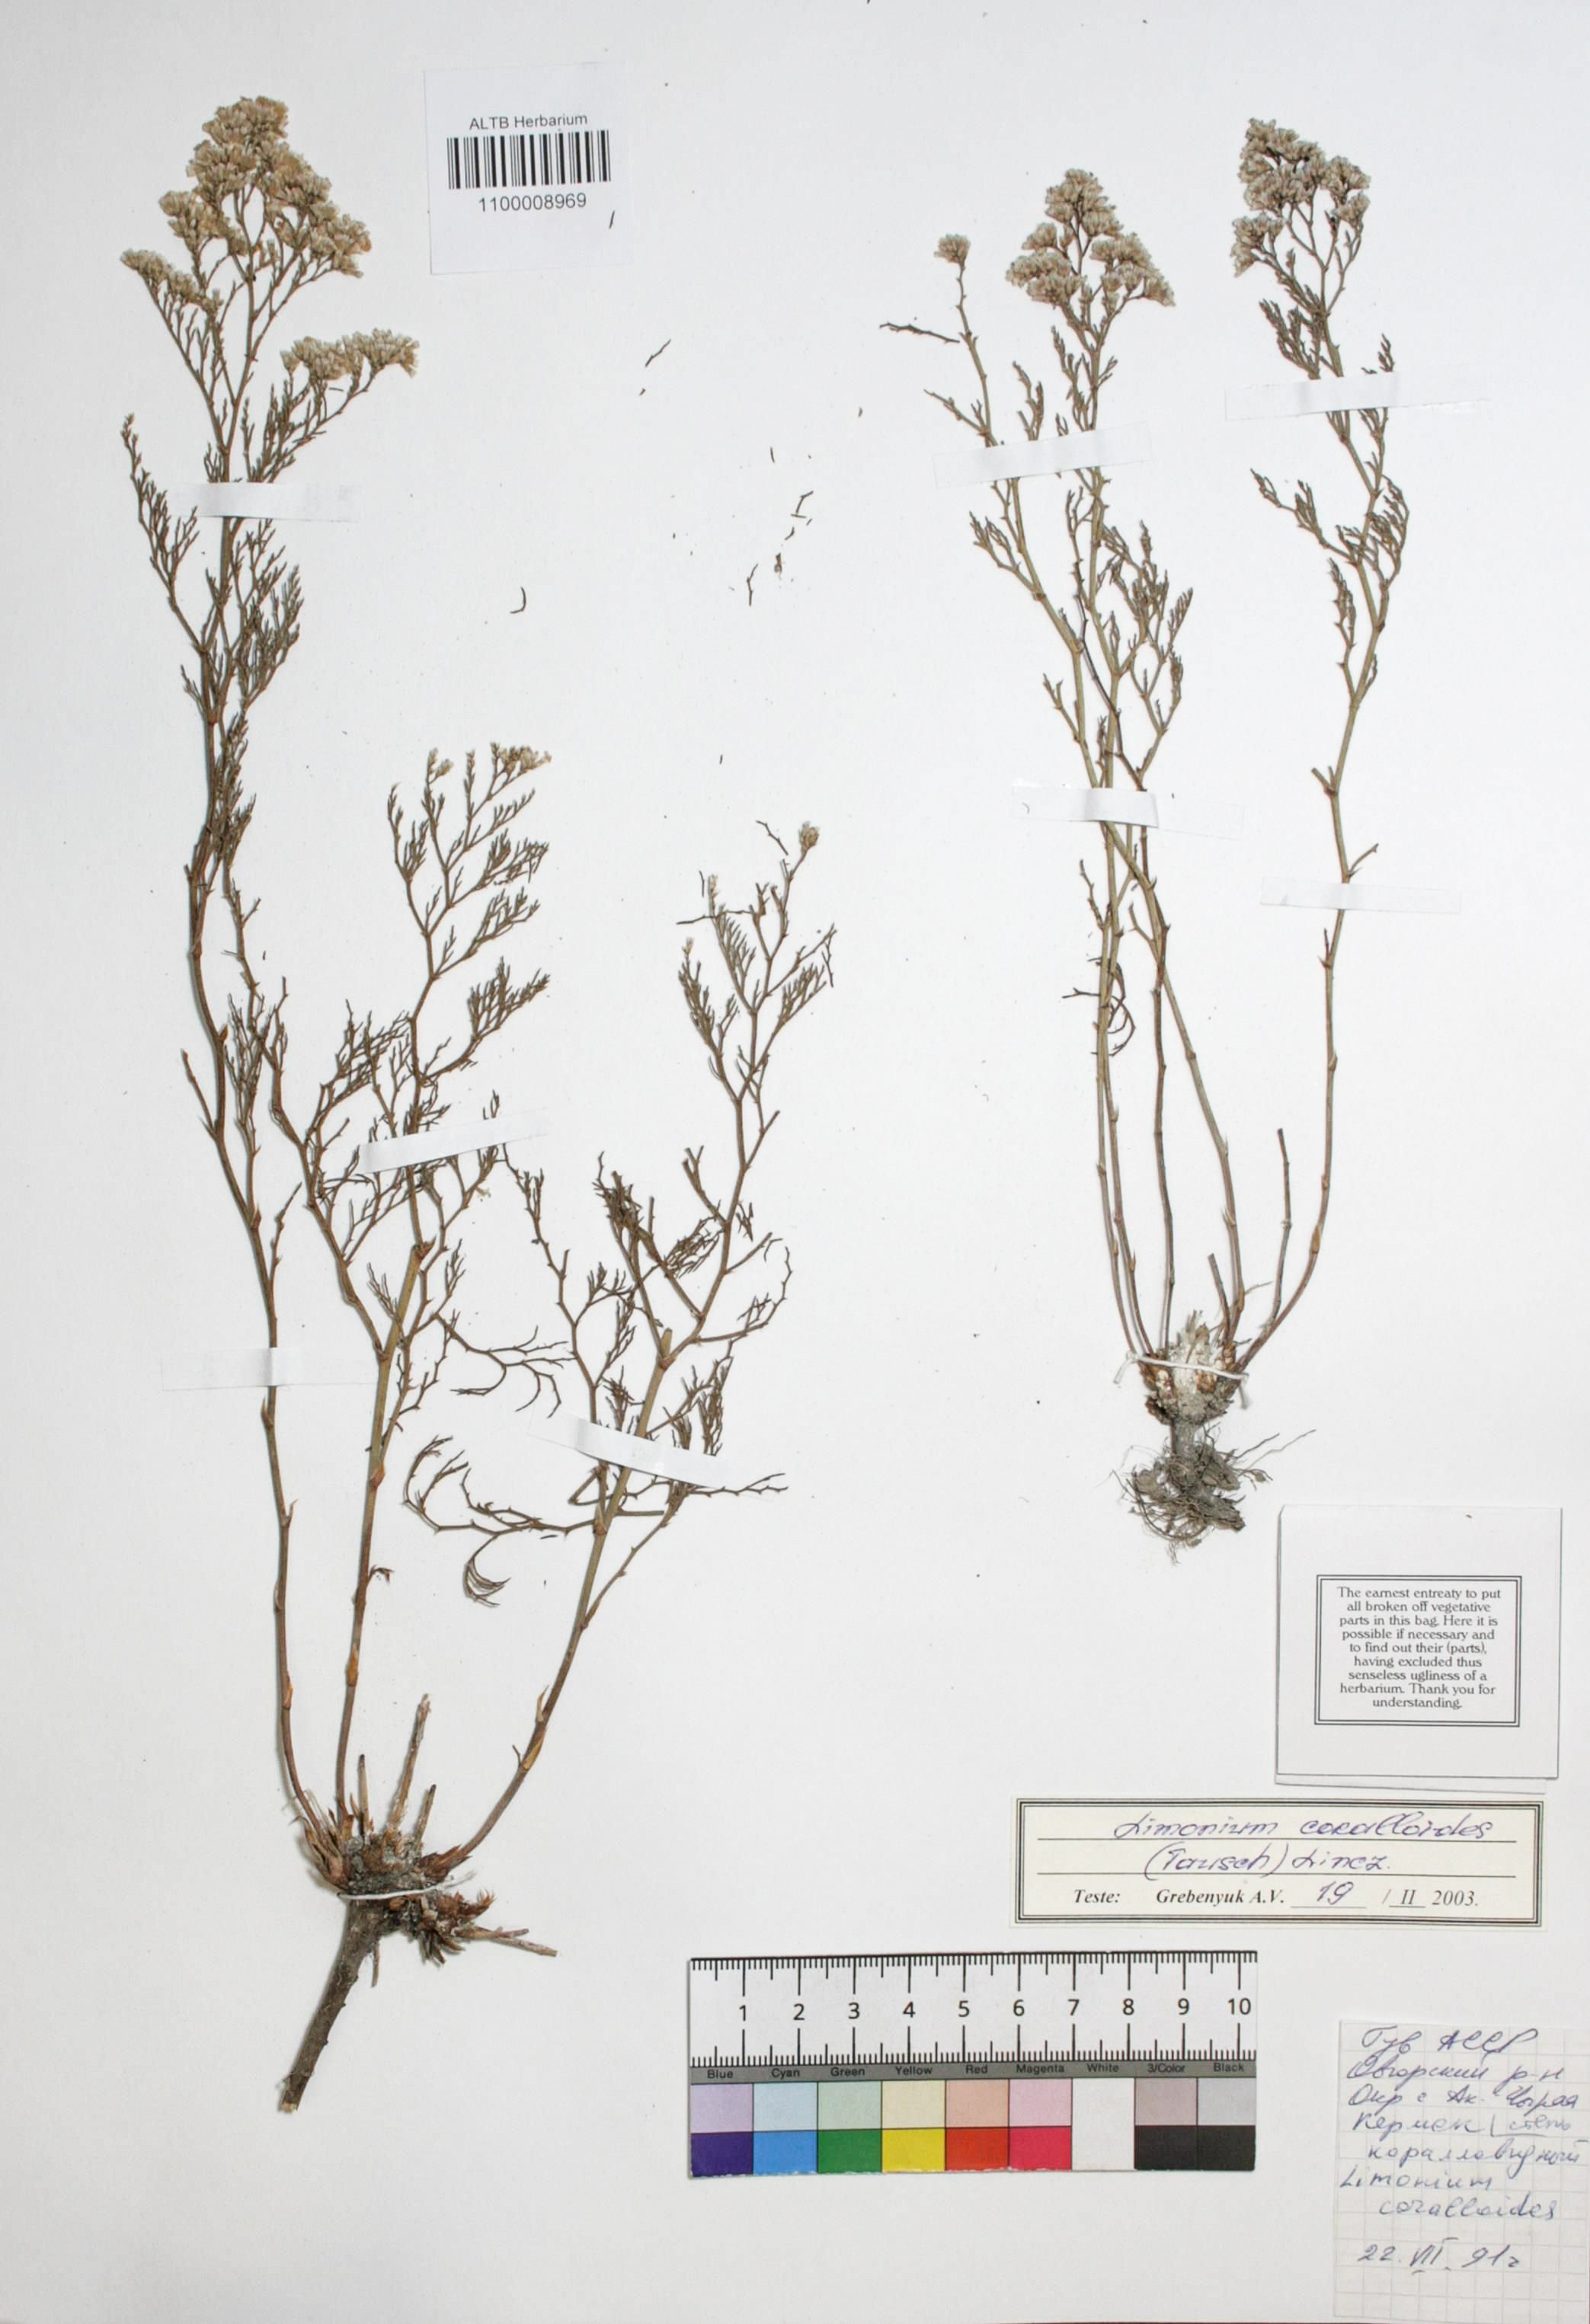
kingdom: Plantae
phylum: Tracheophyta
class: Magnoliopsida
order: Caryophyllales
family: Plumbaginaceae
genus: Limonium
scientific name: Limonium coralloides
